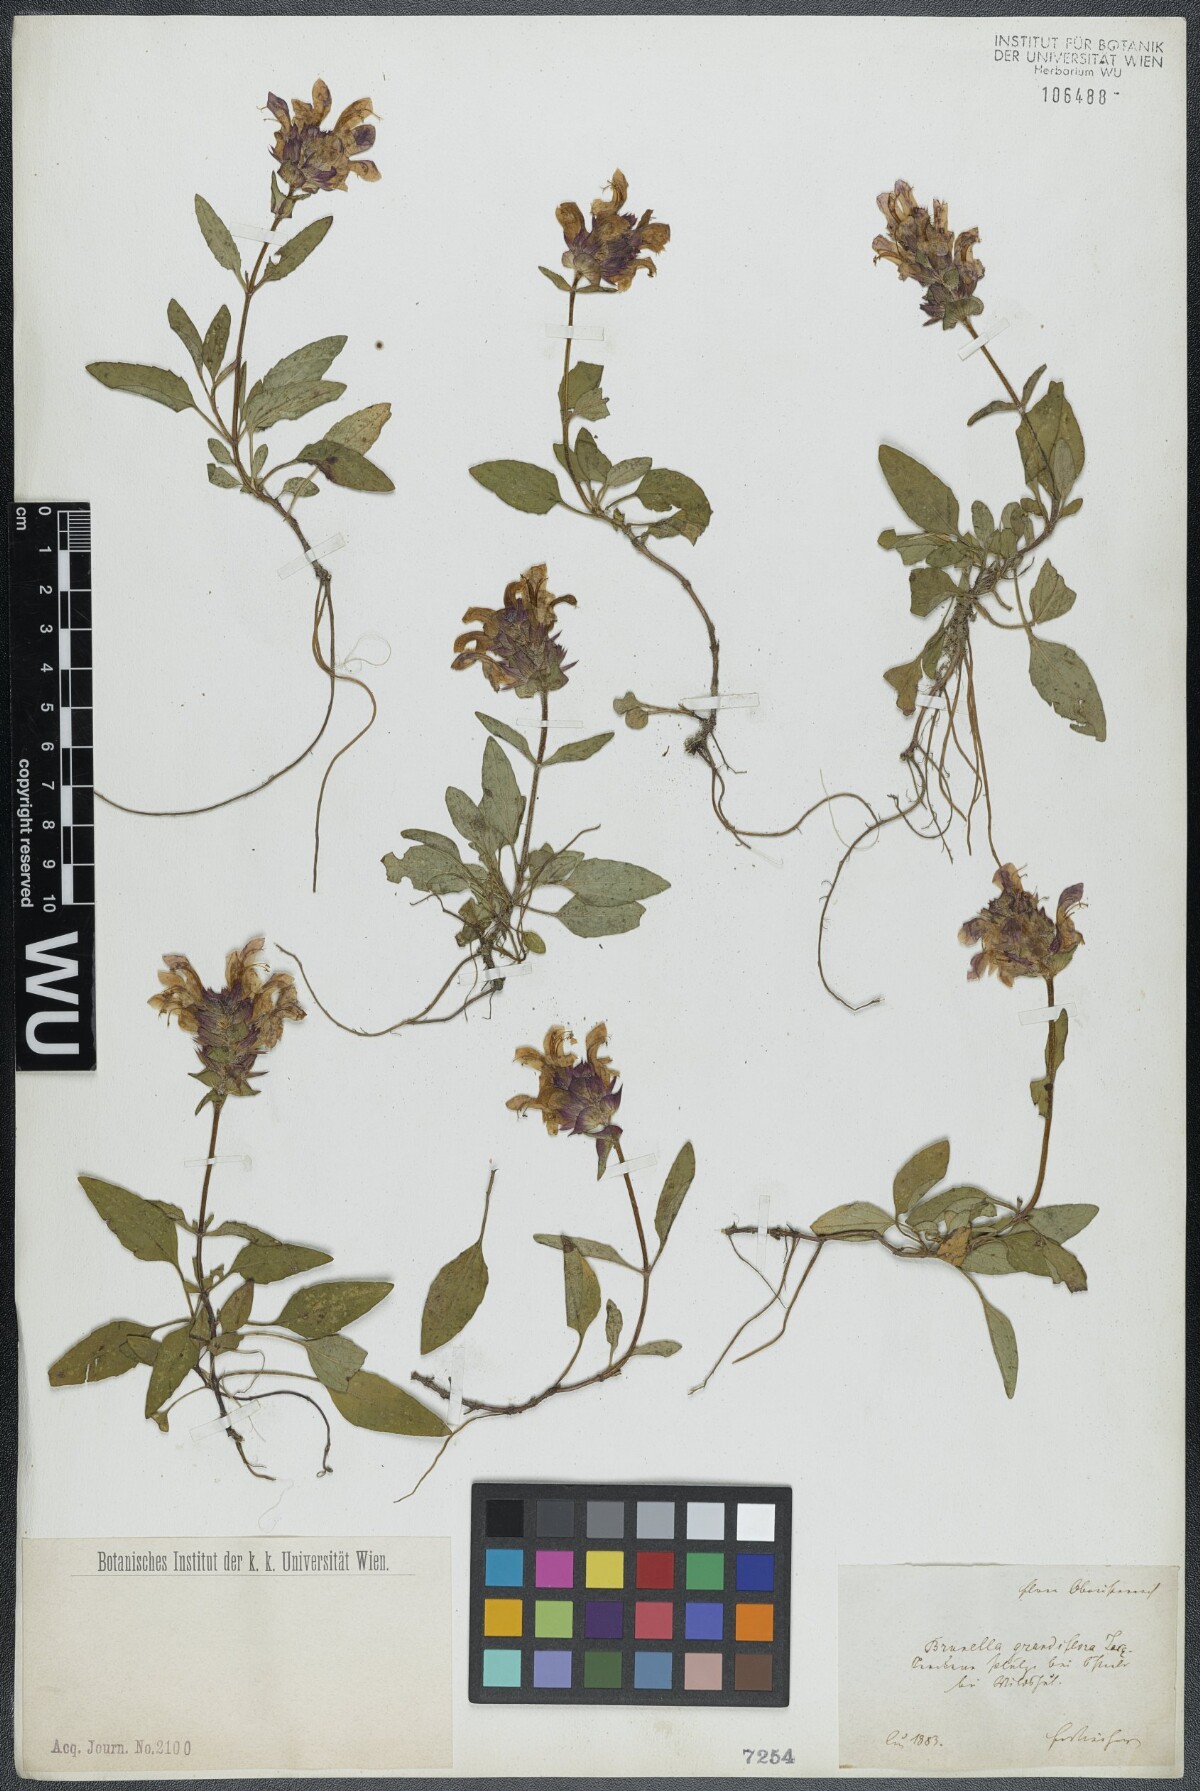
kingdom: Plantae
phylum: Tracheophyta
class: Magnoliopsida
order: Lamiales
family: Lamiaceae
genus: Prunella
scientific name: Prunella grandiflora
